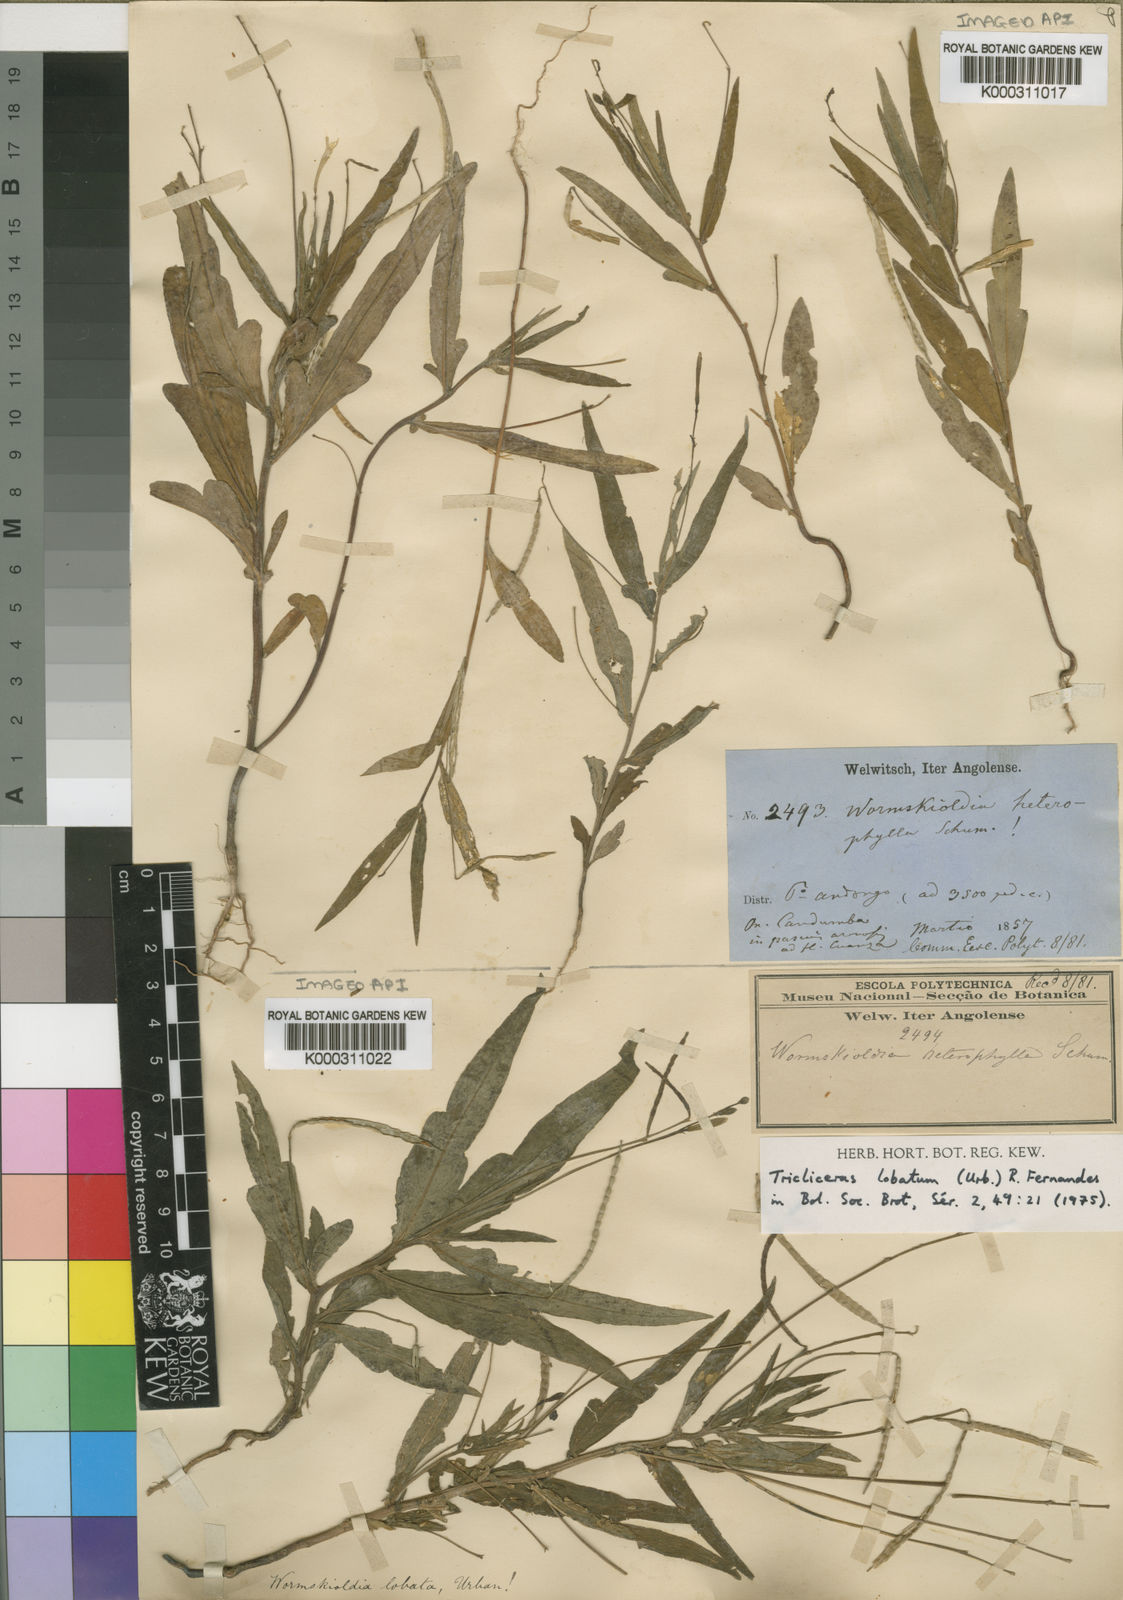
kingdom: Plantae
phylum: Tracheophyta
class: Magnoliopsida
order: Malpighiales
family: Turneraceae
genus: Tricliceras
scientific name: Tricliceras lobatum
